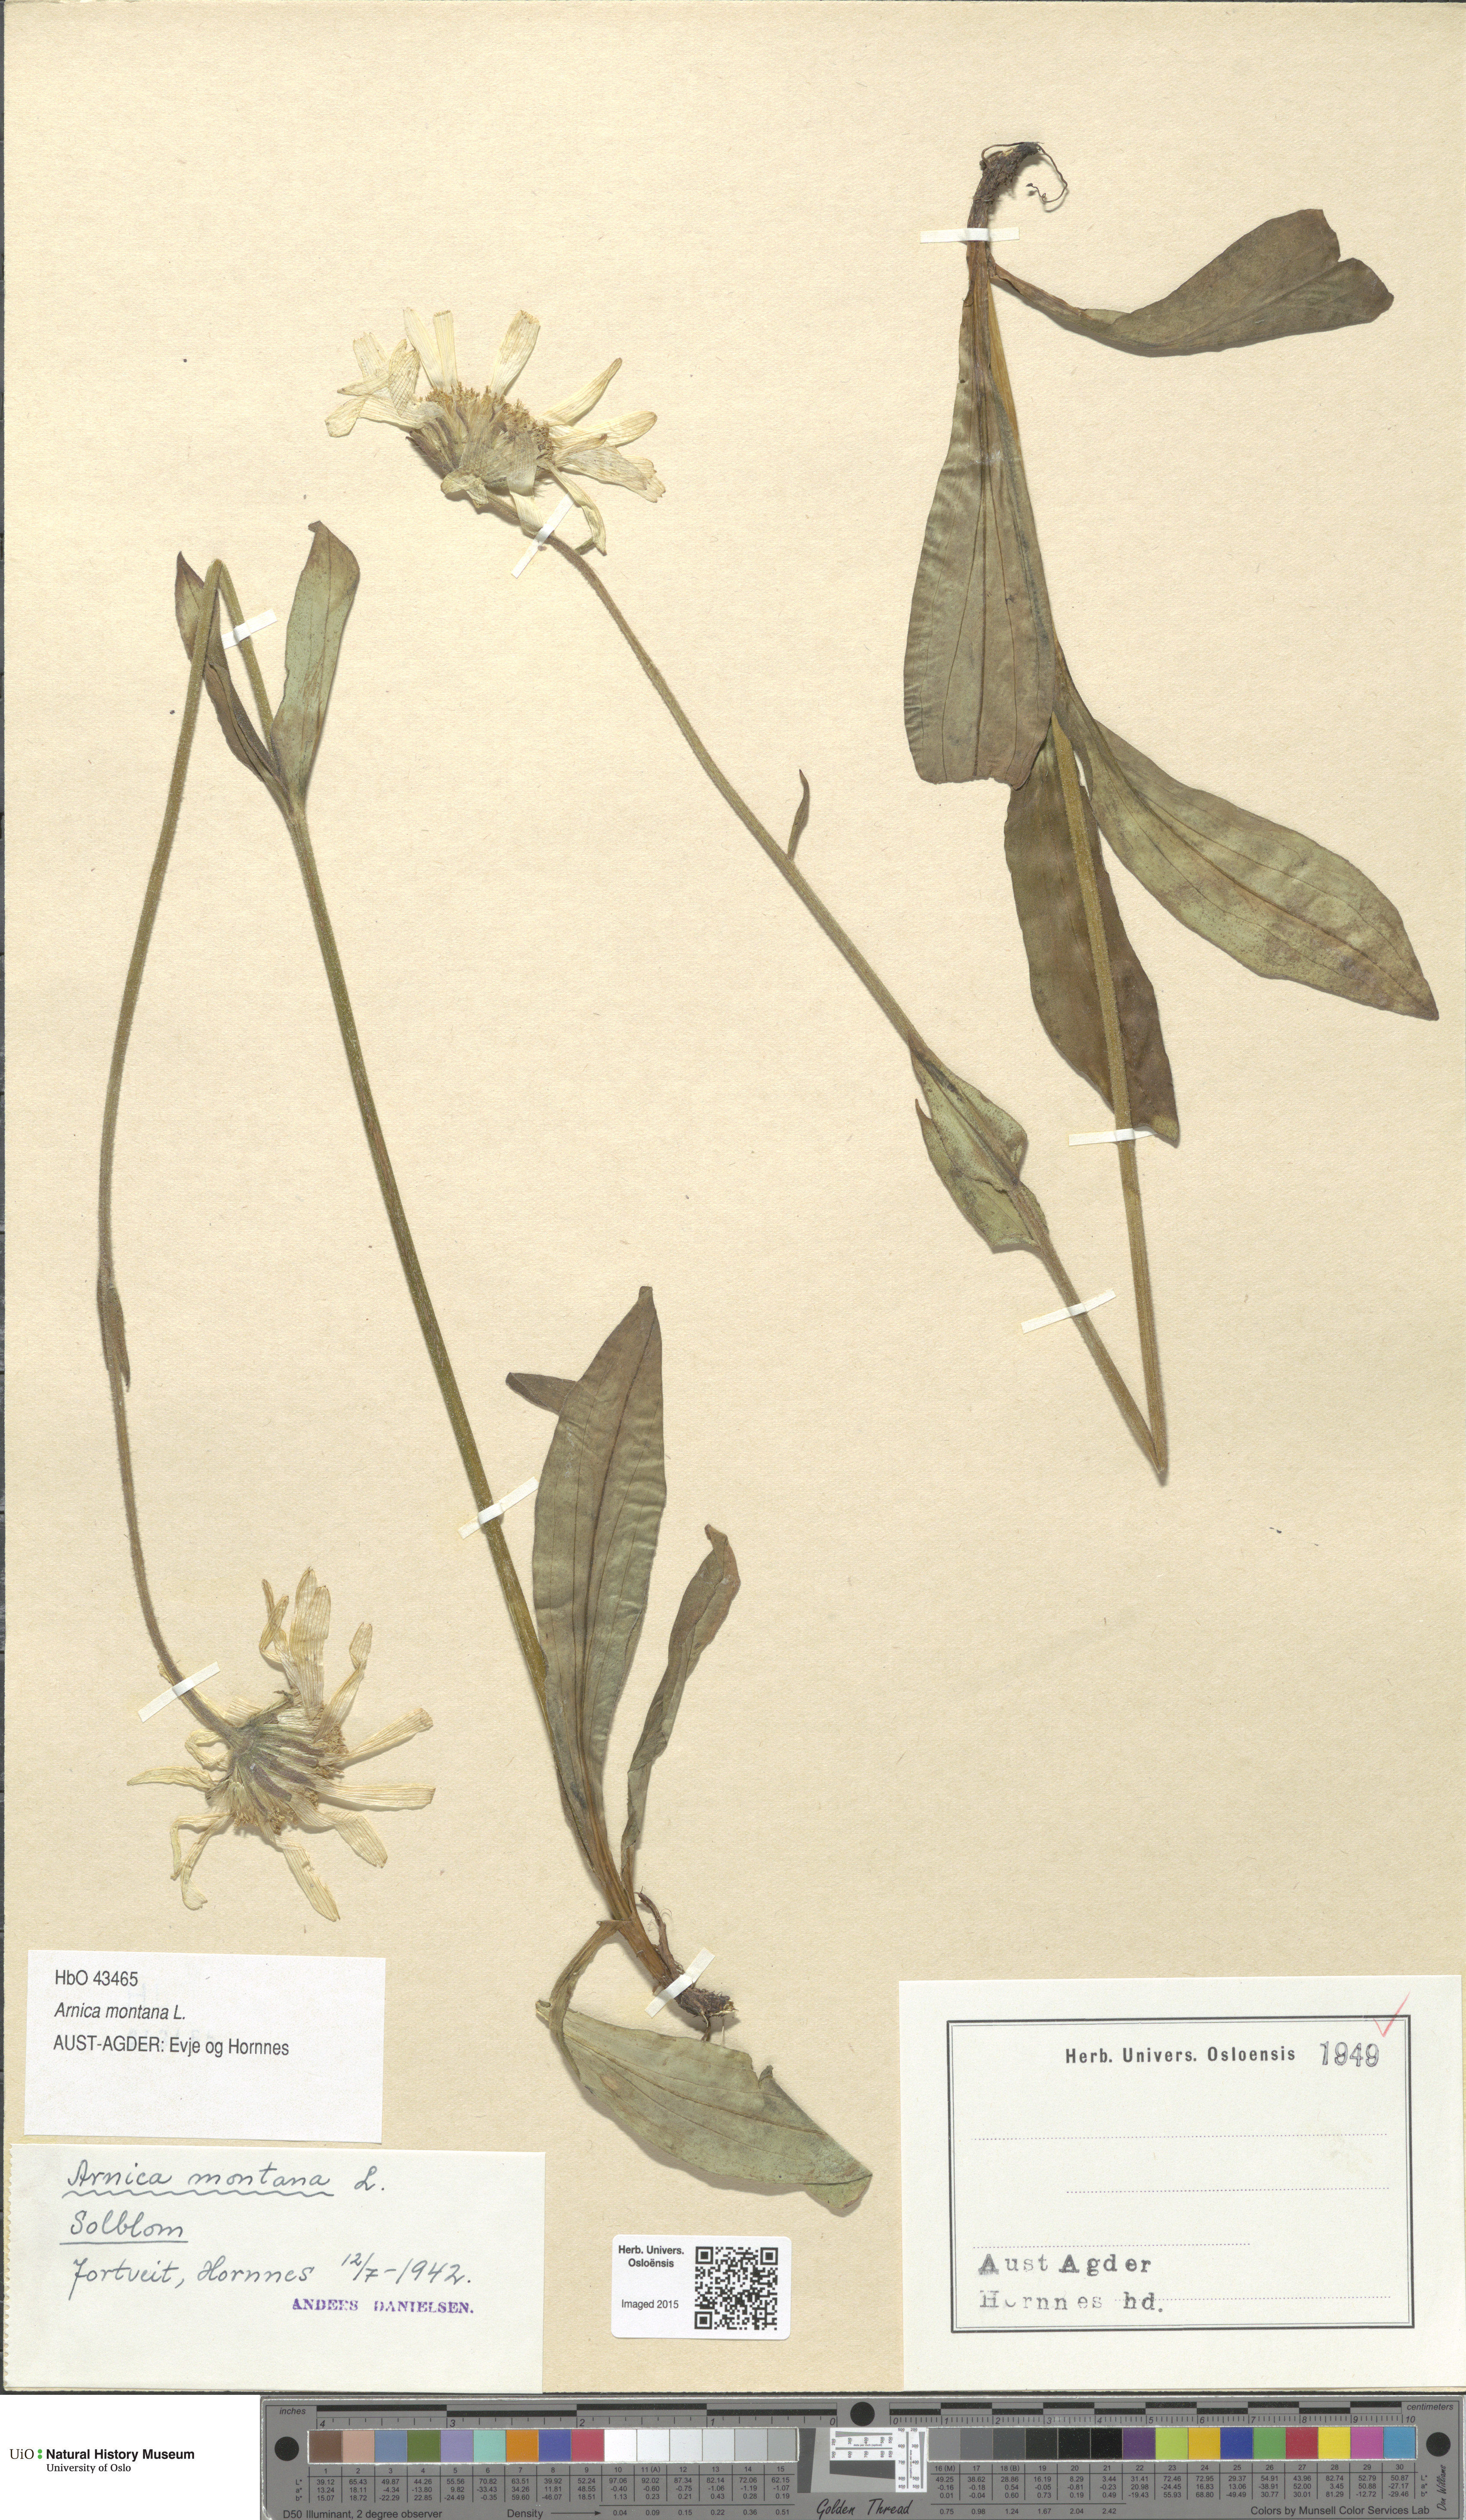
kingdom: Plantae
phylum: Tracheophyta
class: Magnoliopsida
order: Asterales
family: Asteraceae
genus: Arnica
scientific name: Arnica montana
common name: Leopard's bane
